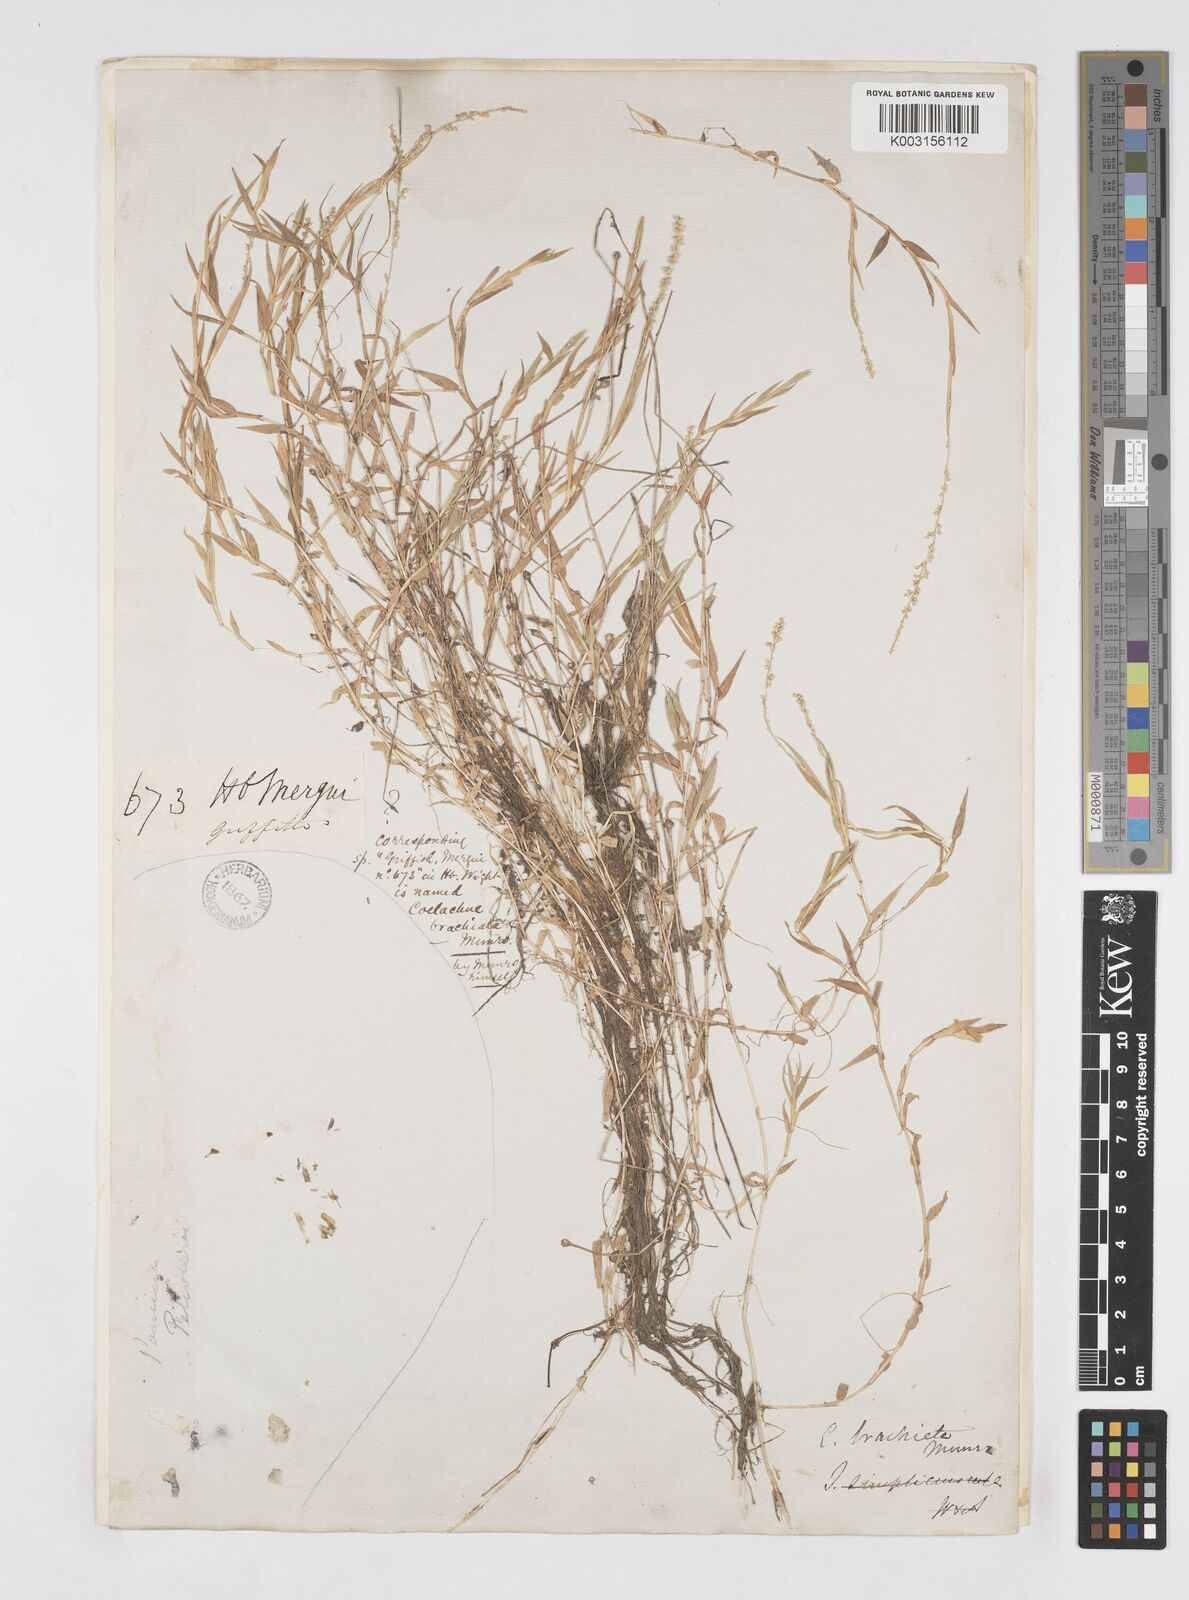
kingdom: Plantae
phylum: Tracheophyta
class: Liliopsida
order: Poales
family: Poaceae
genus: Coelachne
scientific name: Coelachne simpliciuscula
